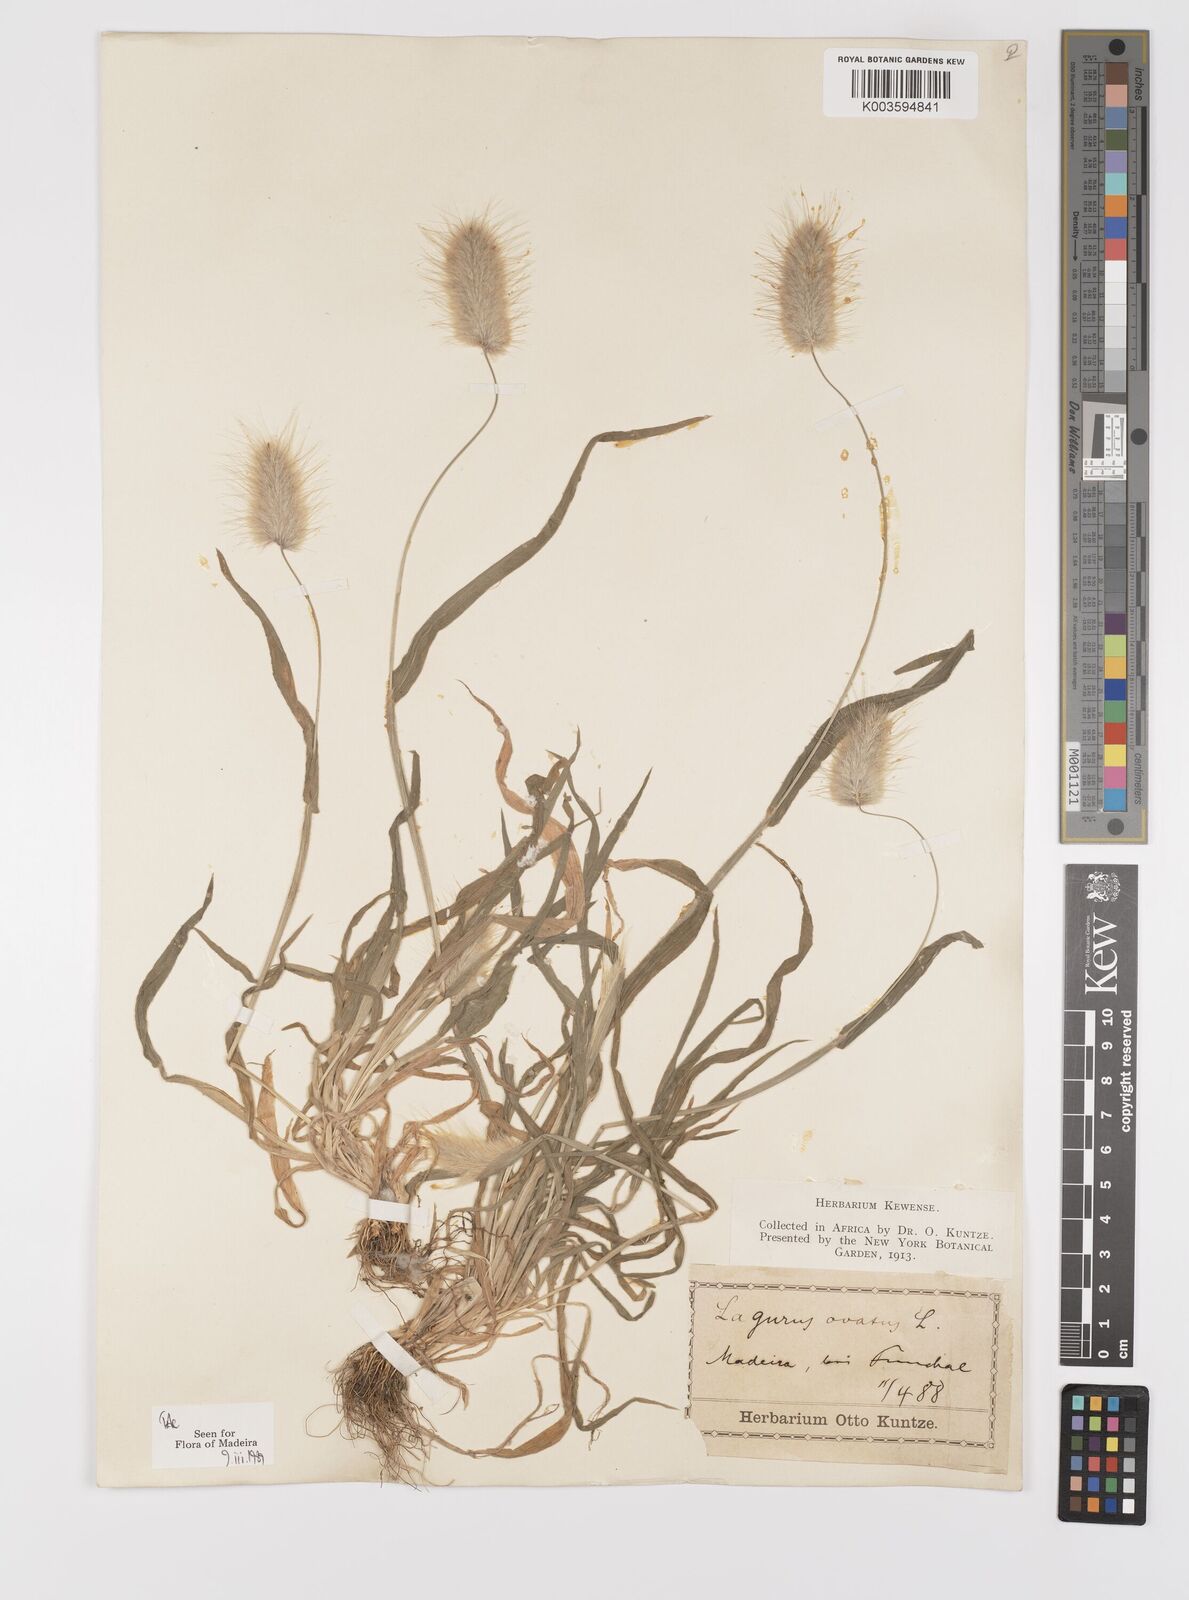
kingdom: Plantae
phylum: Tracheophyta
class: Liliopsida
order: Poales
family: Poaceae
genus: Lagurus
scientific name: Lagurus ovatus
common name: Hare's-tail
